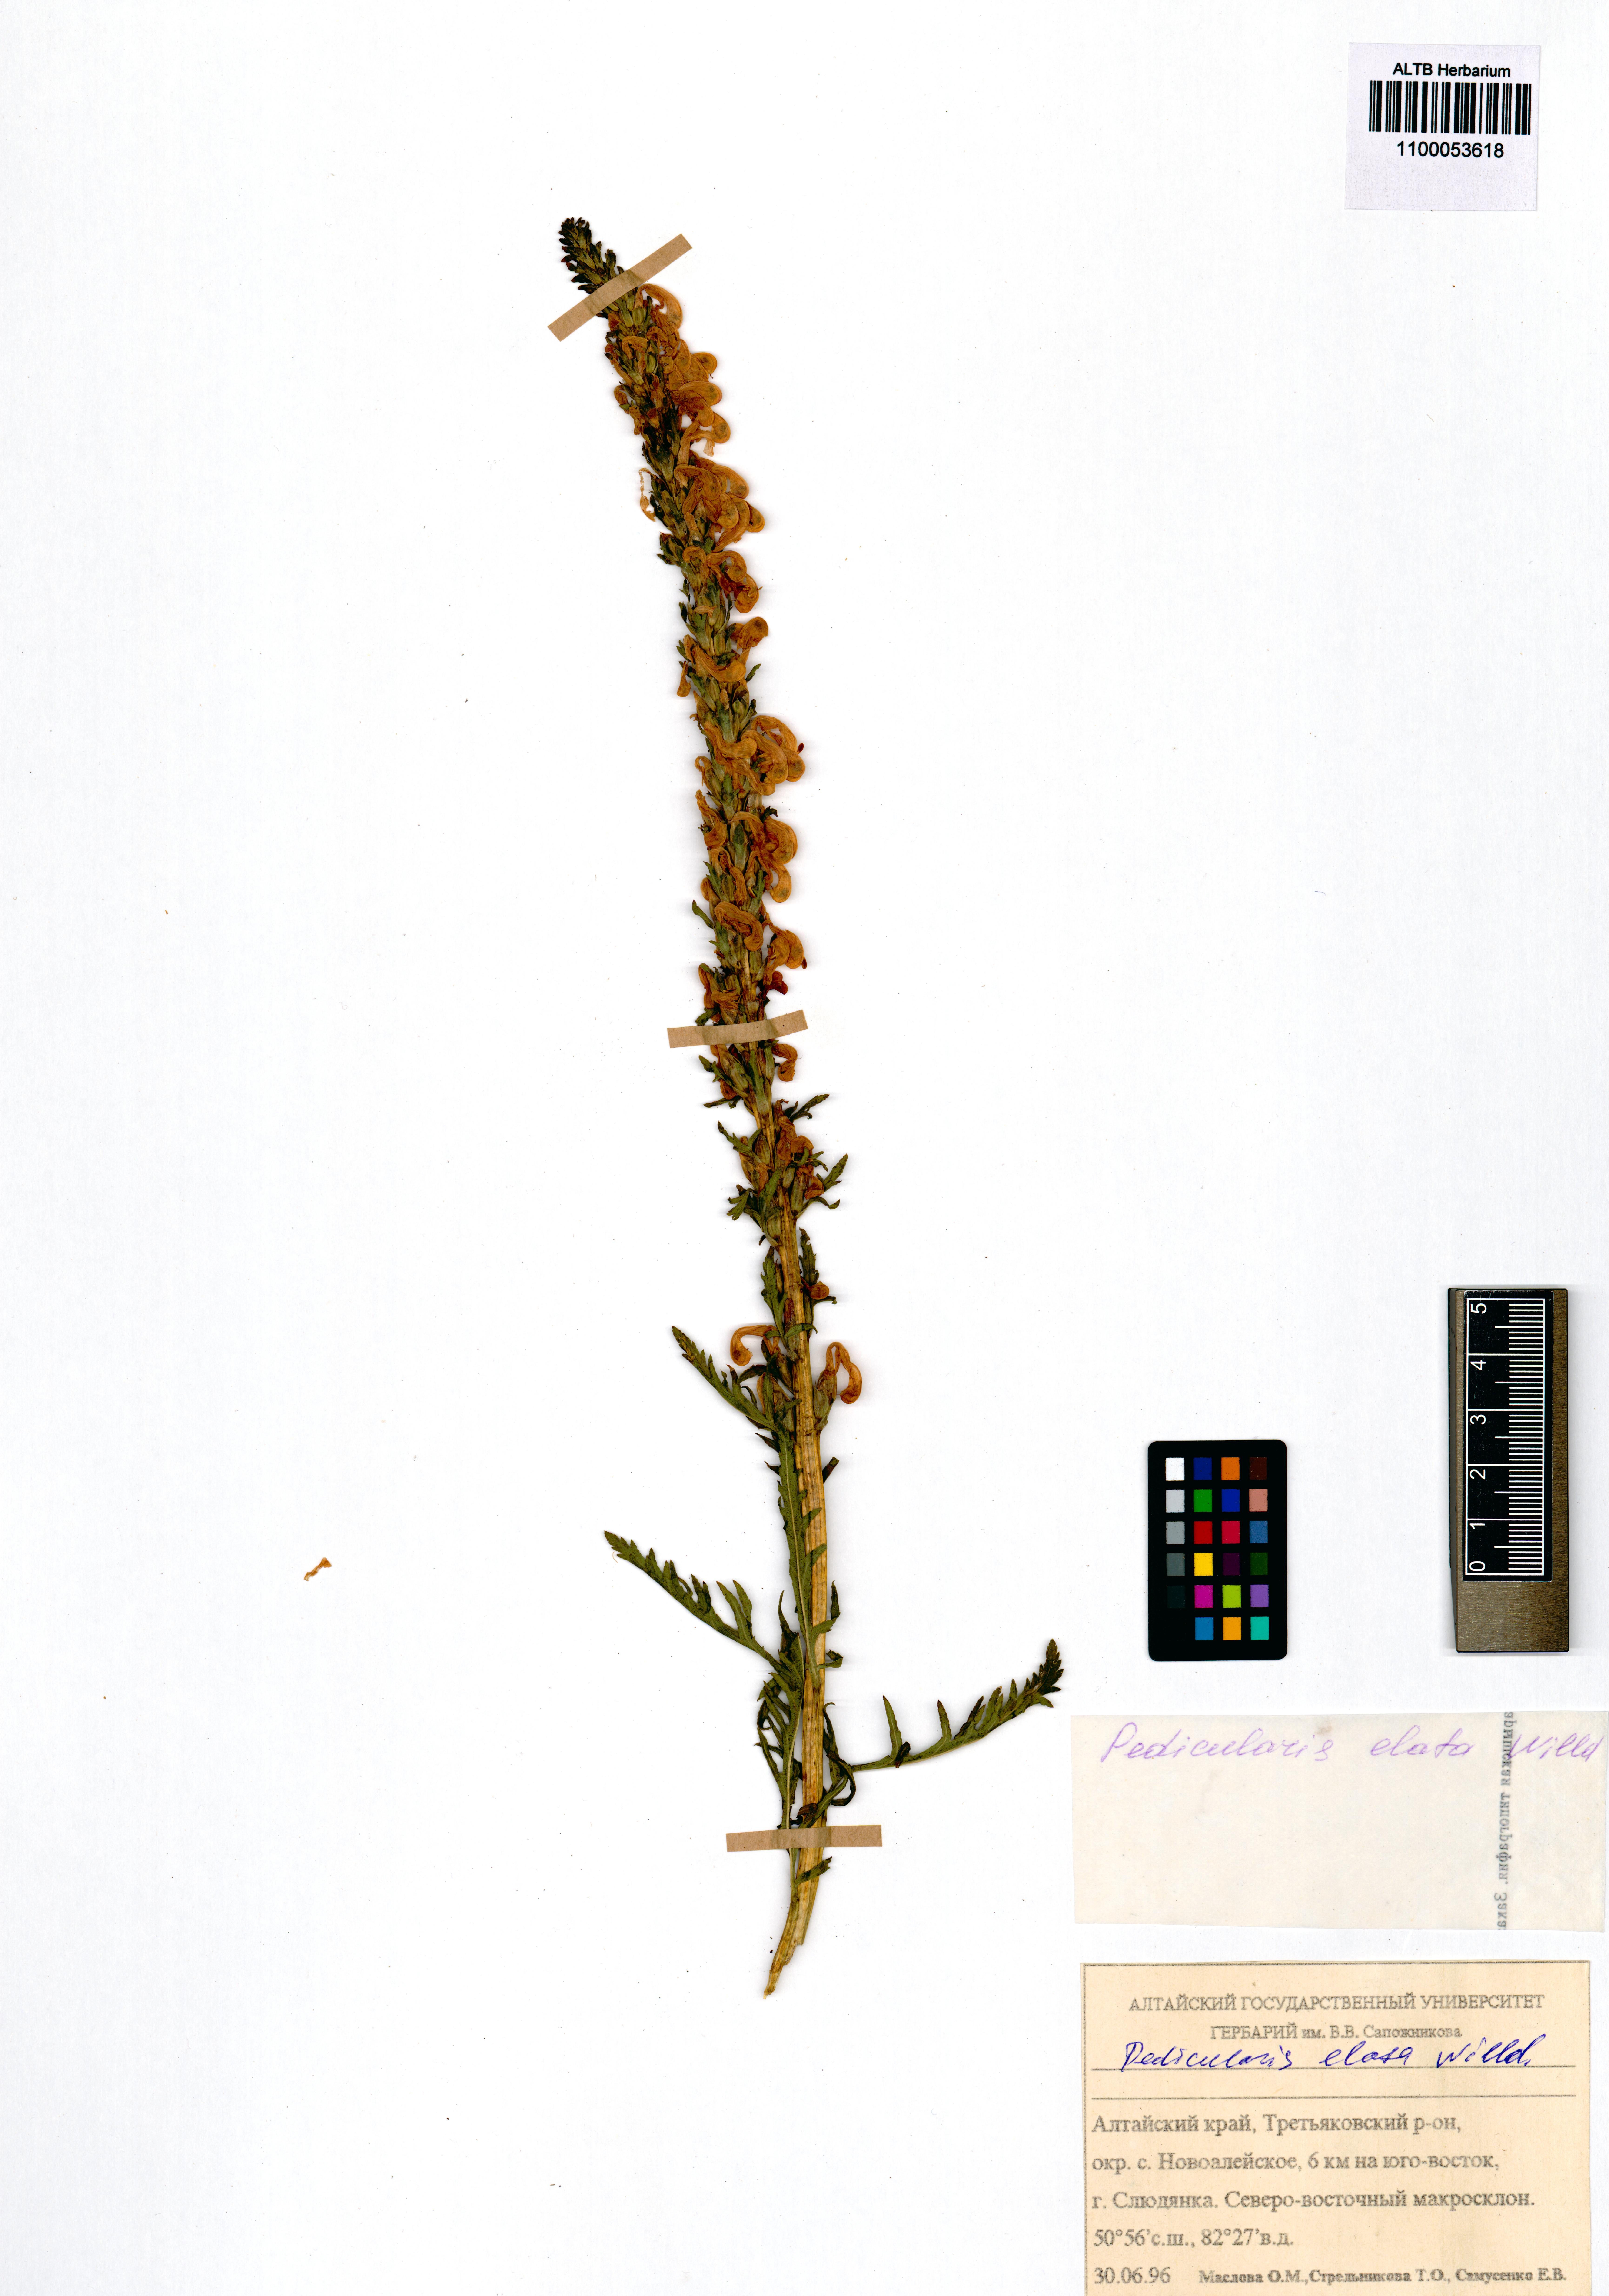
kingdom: Plantae
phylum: Tracheophyta
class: Magnoliopsida
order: Lamiales
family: Orobanchaceae
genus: Pedicularis
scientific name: Pedicularis elata
